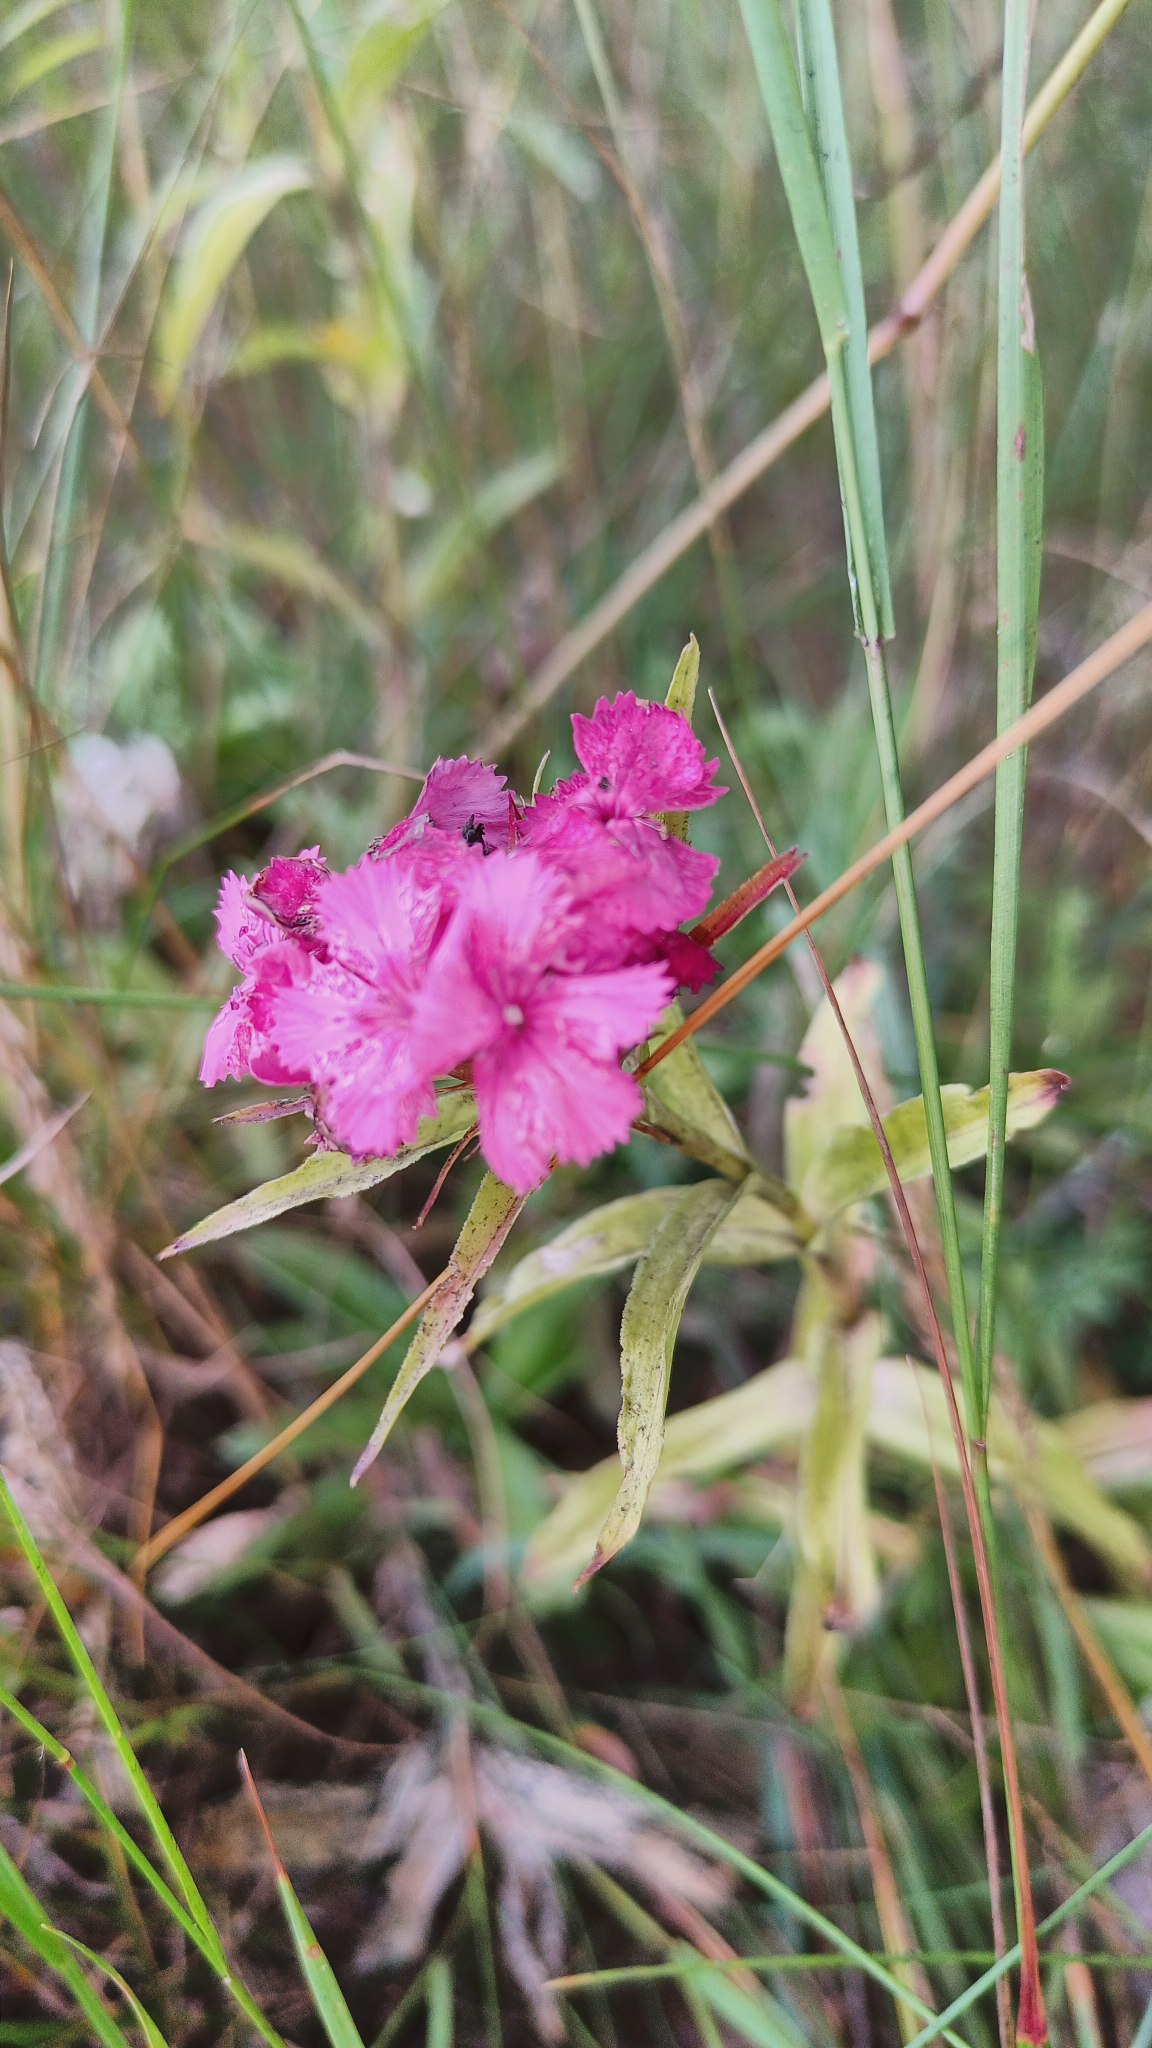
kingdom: Plantae
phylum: Tracheophyta
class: Magnoliopsida
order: Caryophyllales
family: Caryophyllaceae
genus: Dianthus
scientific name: Dianthus barbatus
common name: Studenter-nellike
